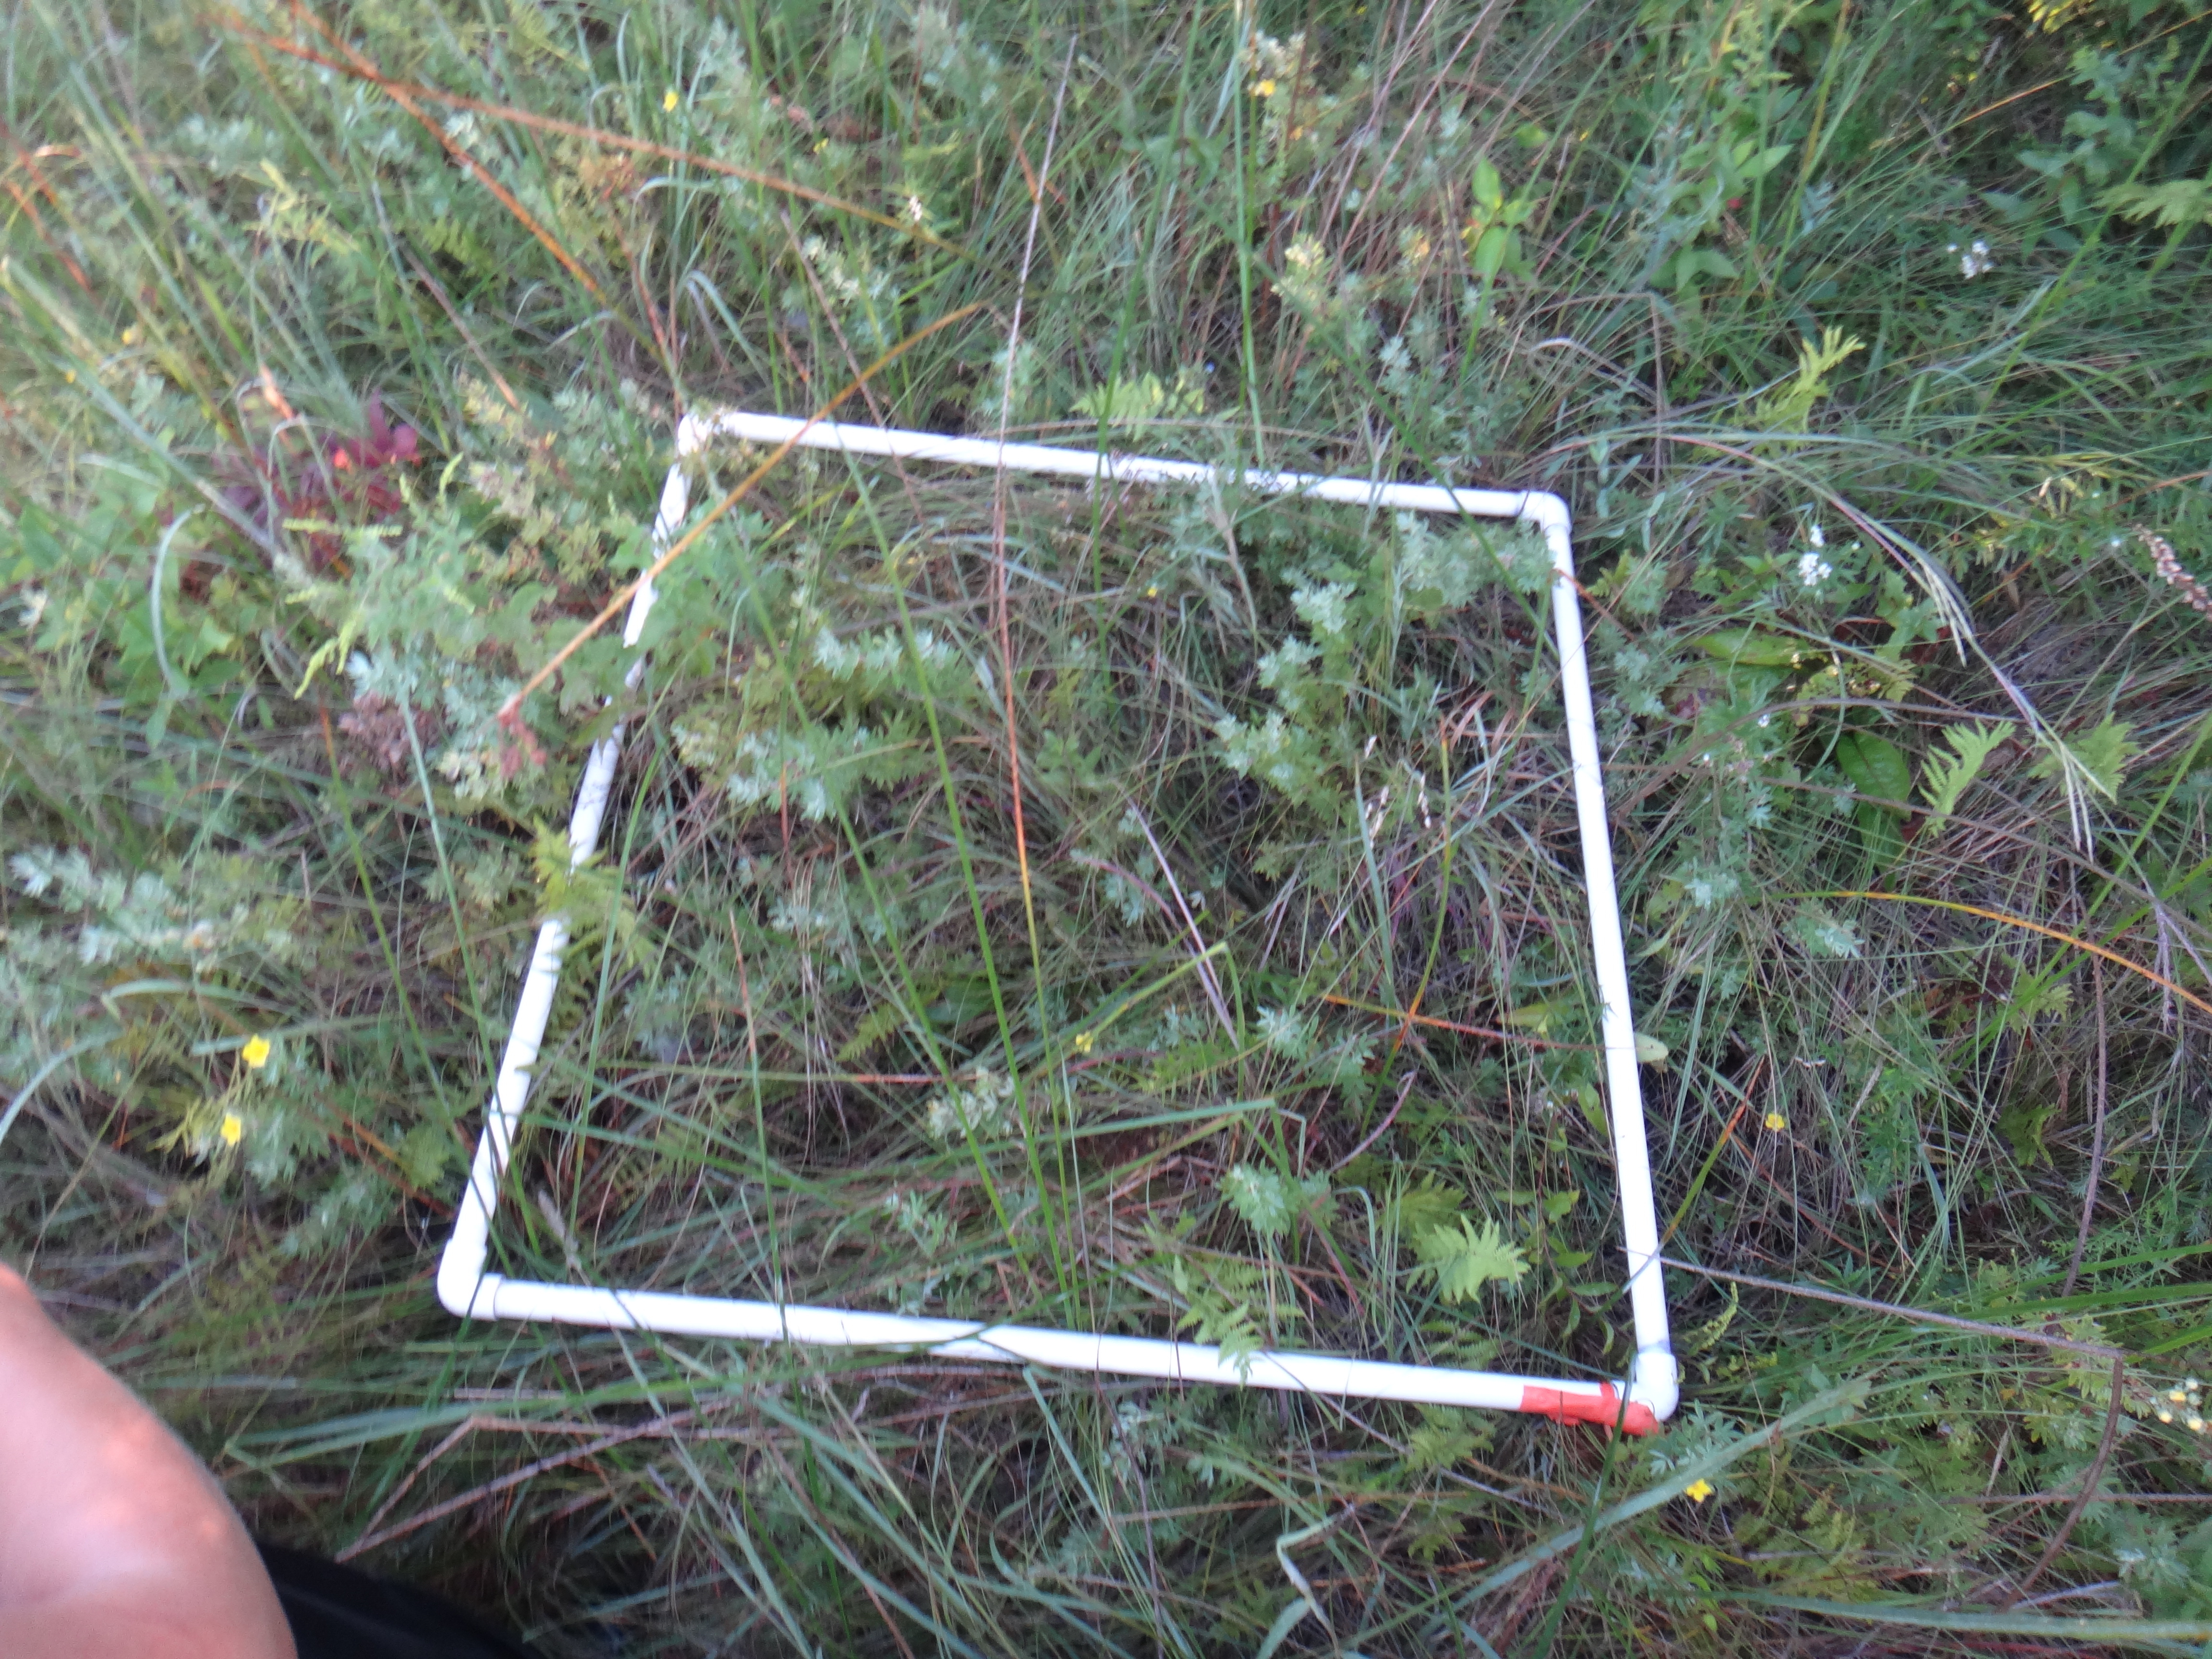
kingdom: Plantae
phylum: Tracheophyta
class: Magnoliopsida
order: Asterales
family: Asteraceae
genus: Symphyotrichum
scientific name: Symphyotrichum lanceolatum
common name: Panicled aster
